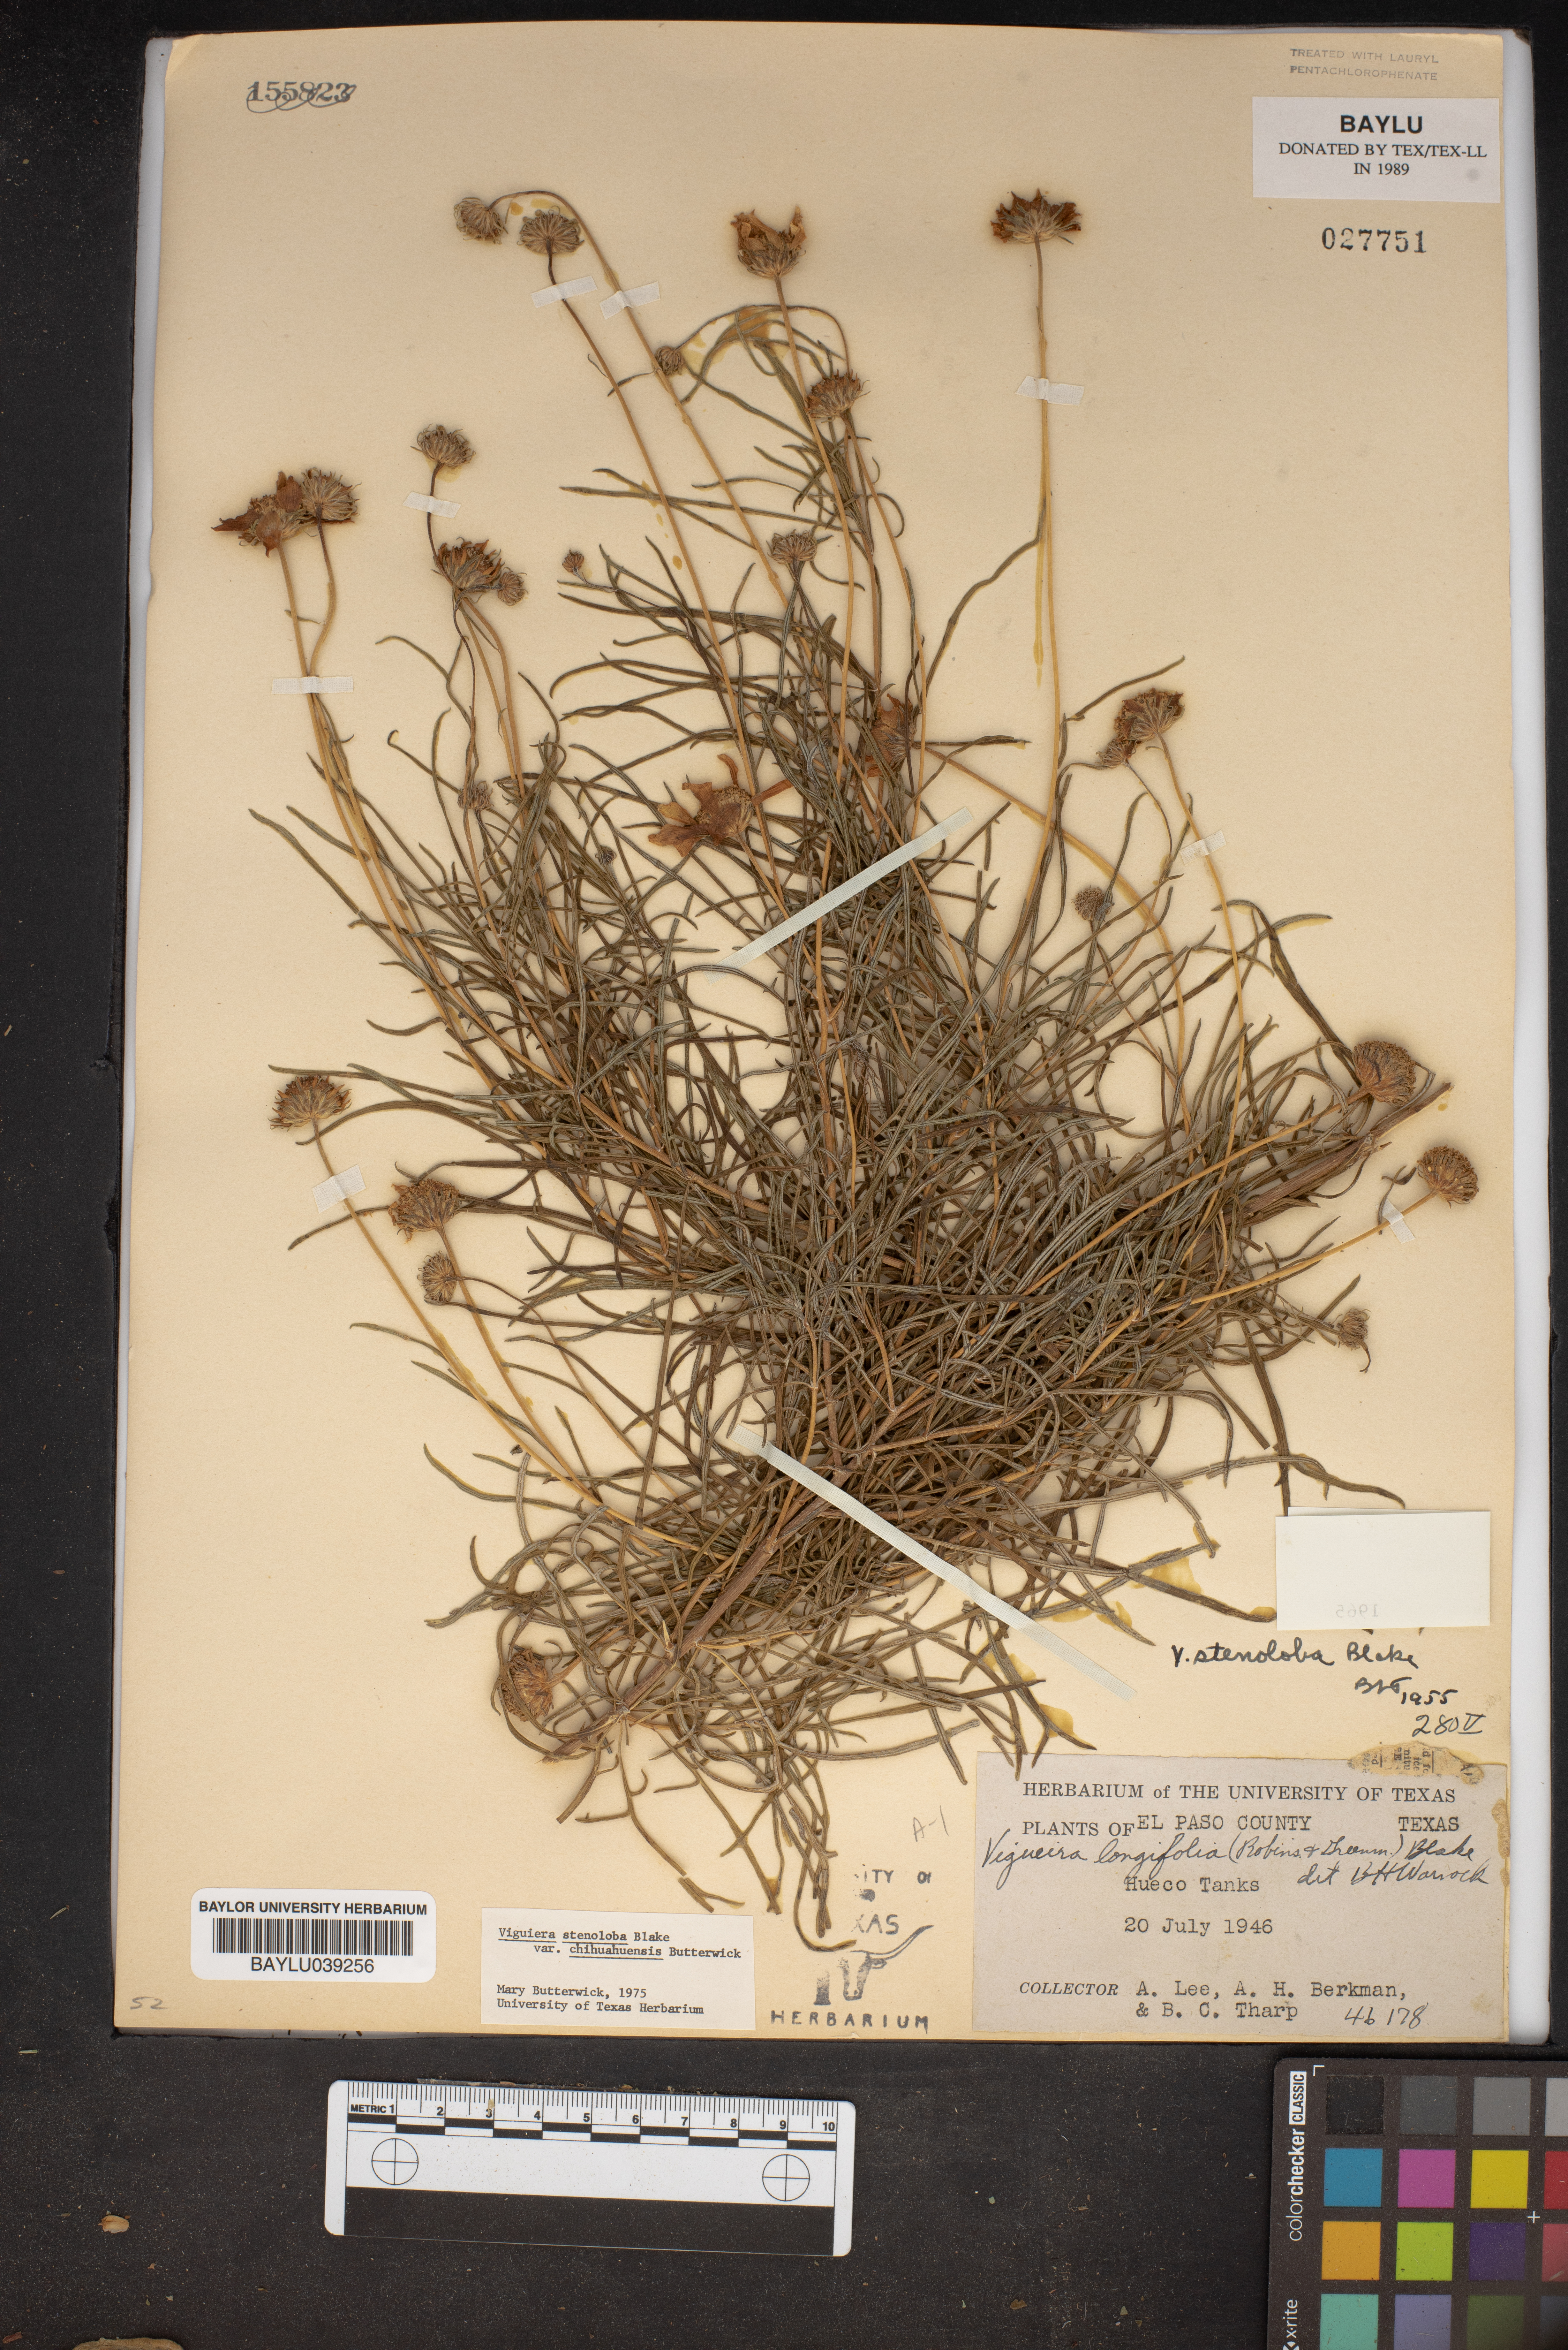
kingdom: Plantae
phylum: Tracheophyta
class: Magnoliopsida
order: Asterales
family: Asteraceae
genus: Sidneya
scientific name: Sidneya tenuifolia
